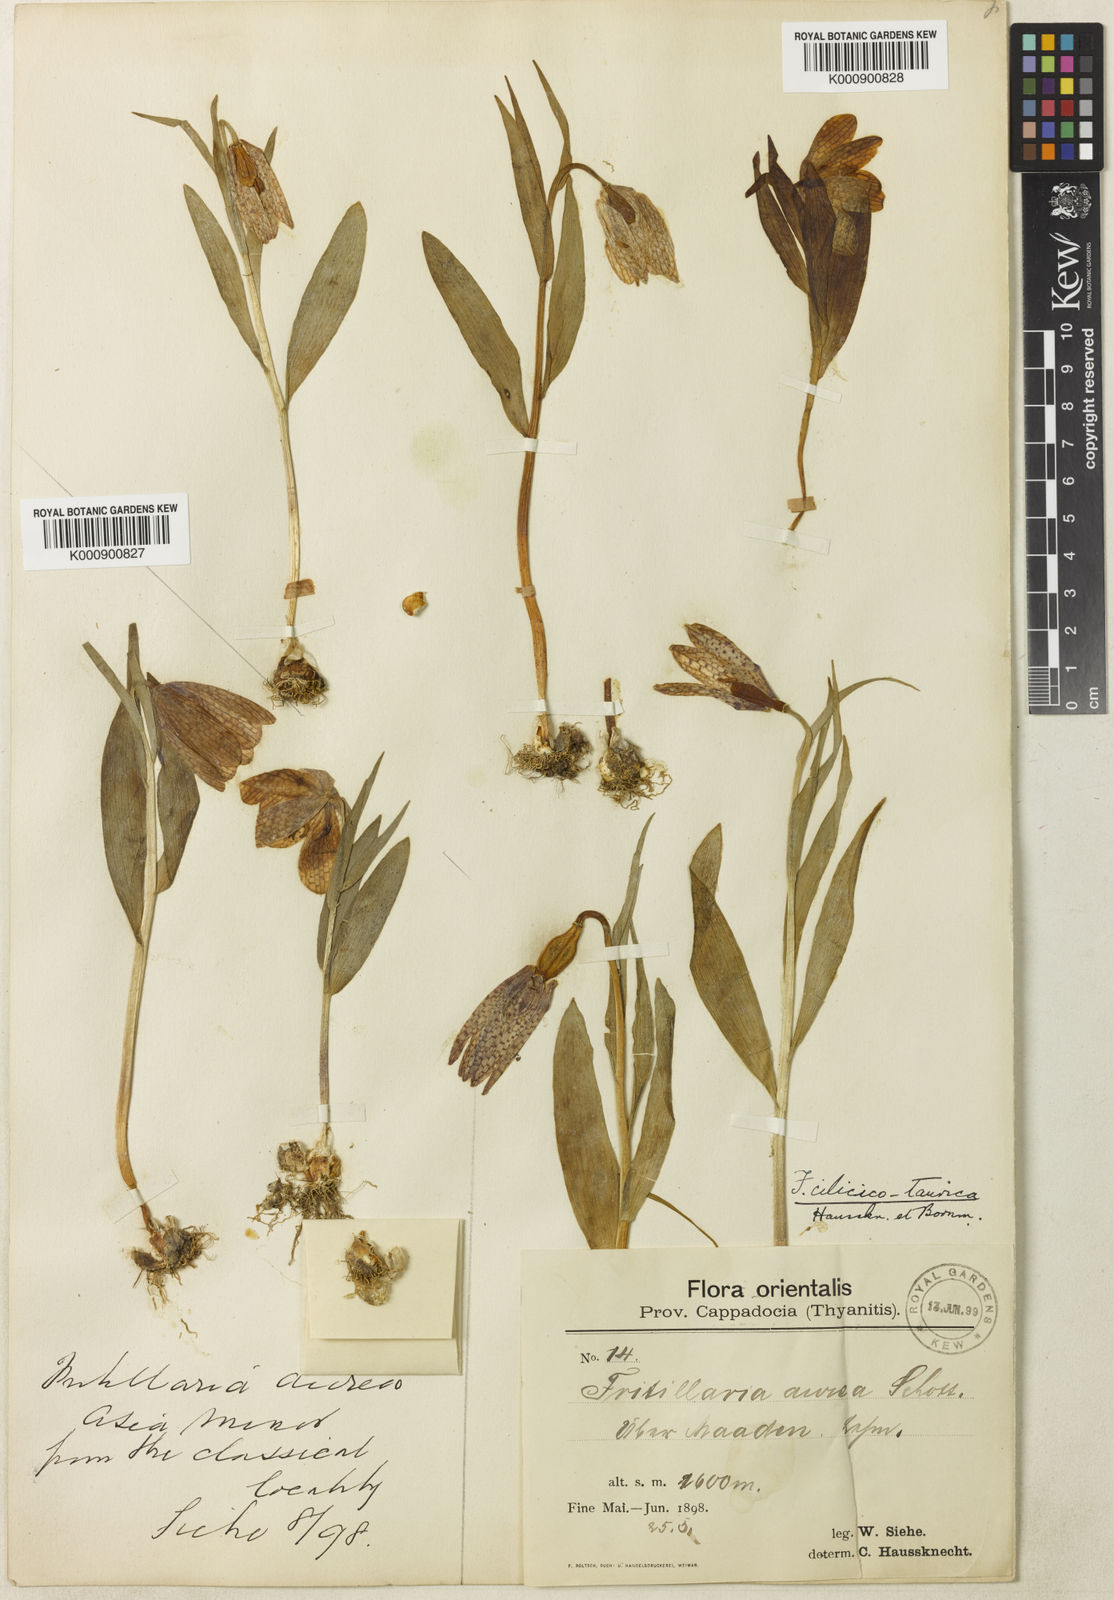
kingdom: Plantae
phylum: Tracheophyta
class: Liliopsida
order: Liliales
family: Liliaceae
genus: Fritillaria
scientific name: Fritillaria aurea
